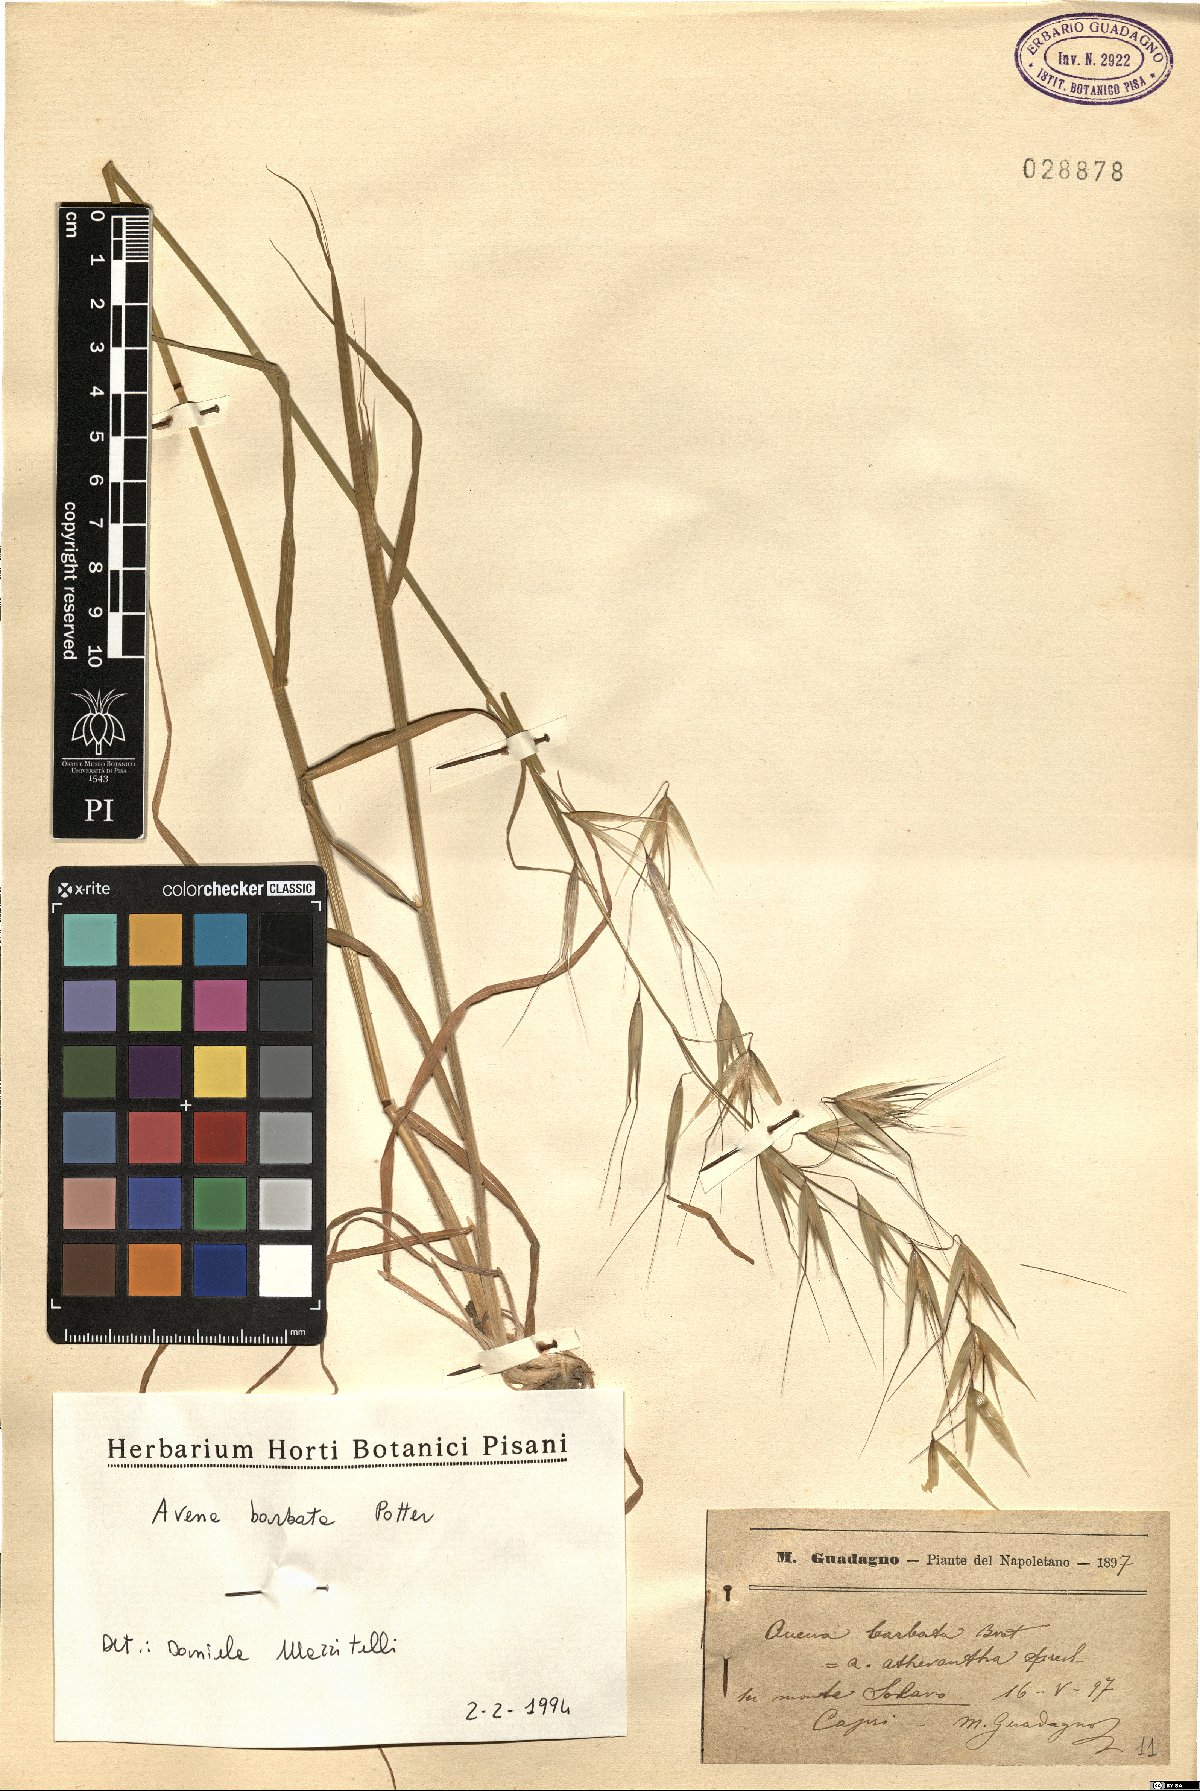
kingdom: Plantae
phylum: Tracheophyta
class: Liliopsida
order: Poales
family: Poaceae
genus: Avena
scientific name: Avena barbata
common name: Slender oat
